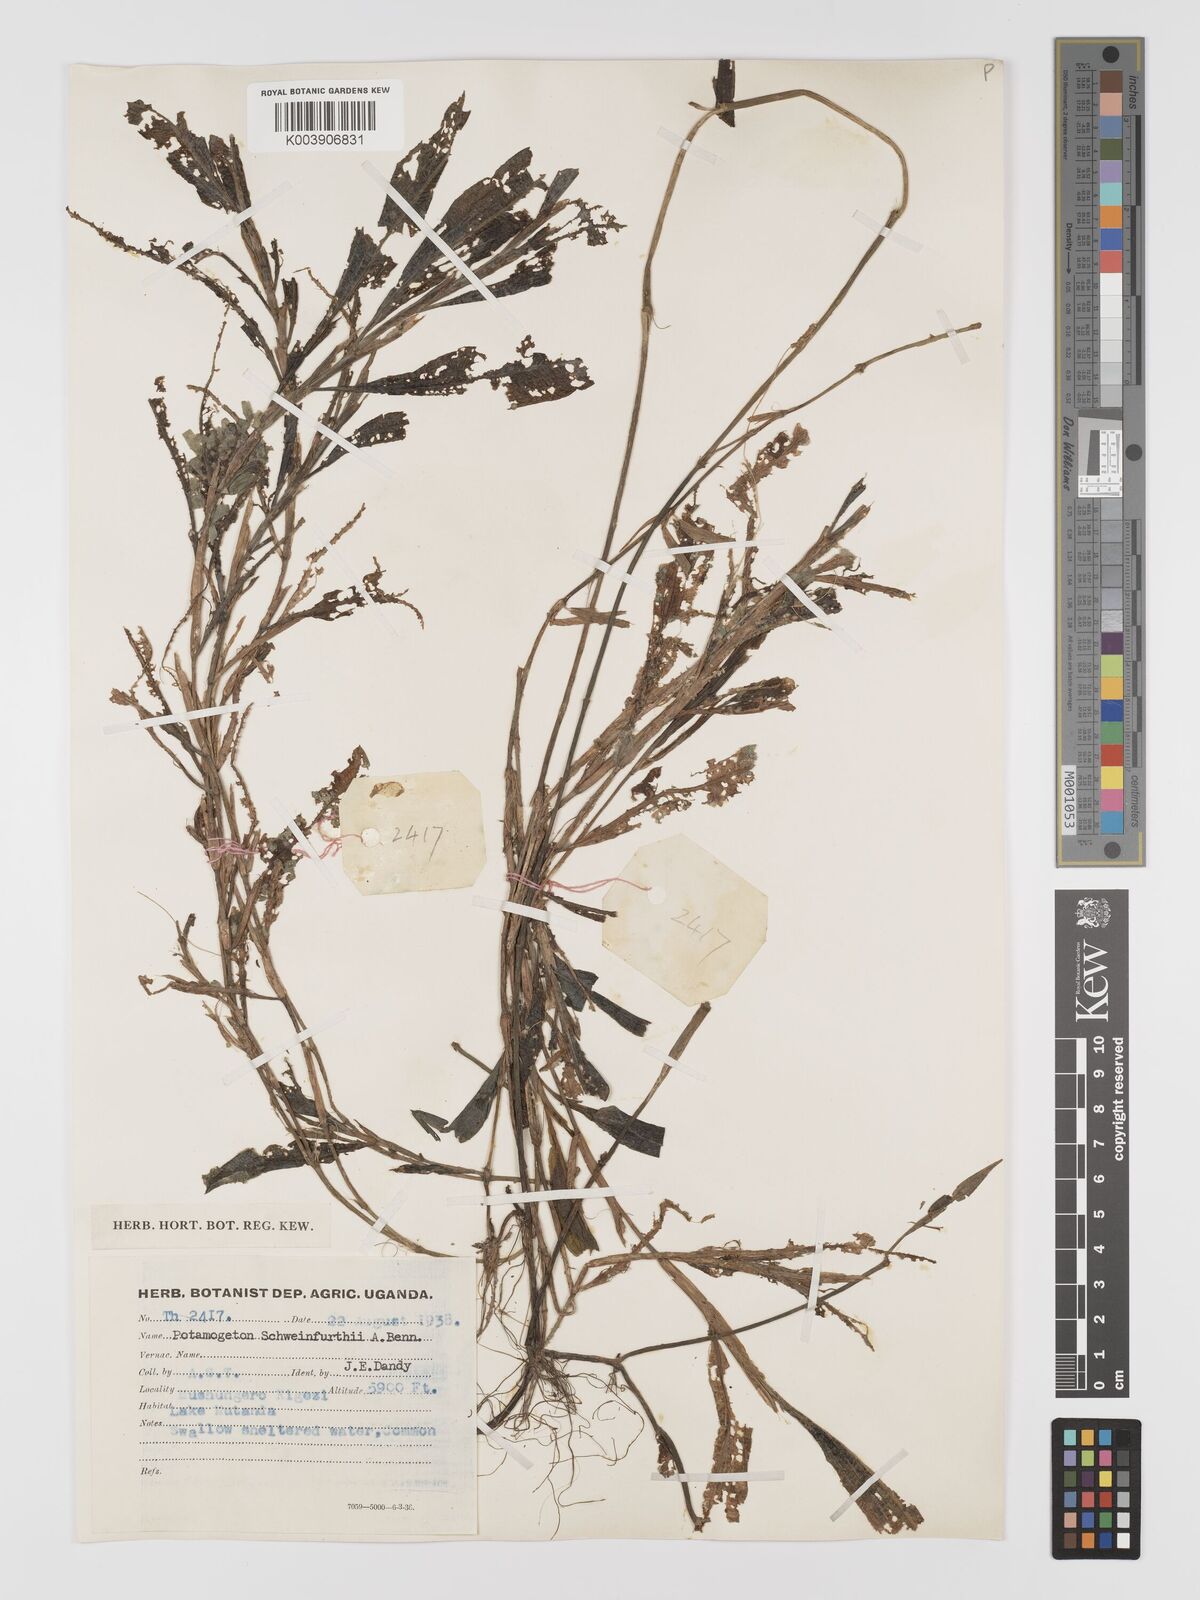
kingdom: Plantae
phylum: Tracheophyta
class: Liliopsida
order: Alismatales
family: Potamogetonaceae
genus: Potamogeton
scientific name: Potamogeton schweinfurthii
